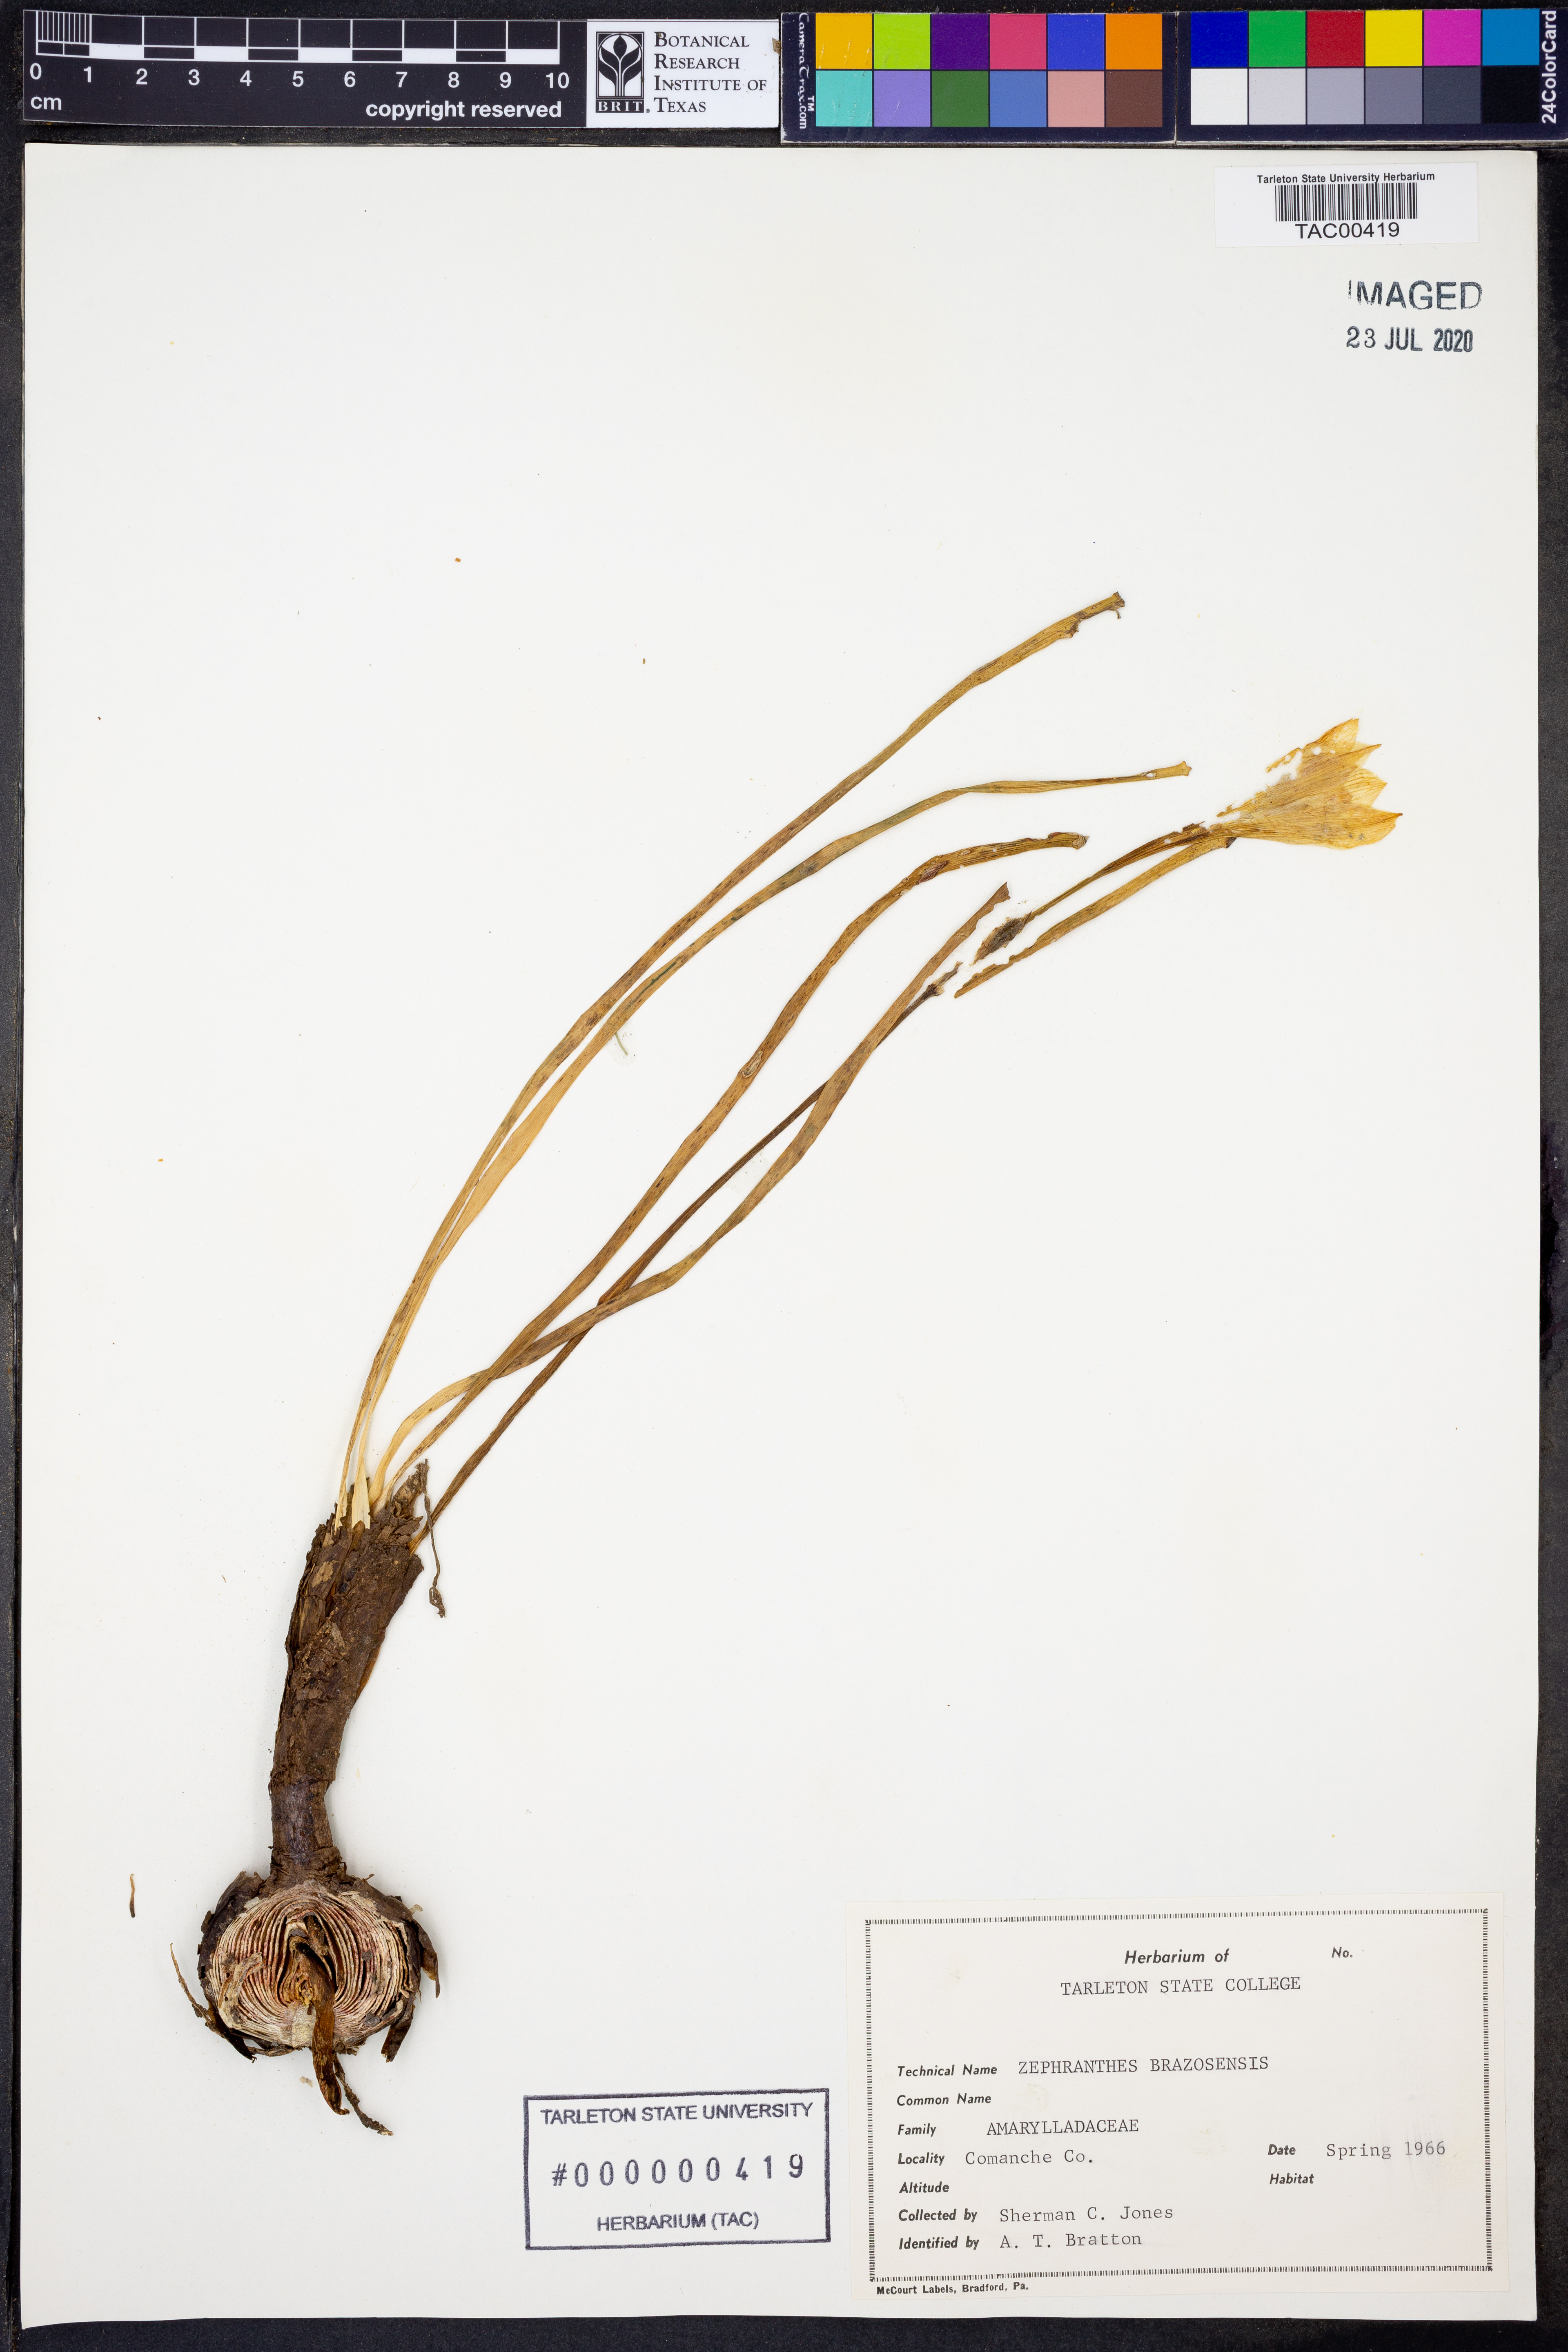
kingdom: Plantae
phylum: Tracheophyta
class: Liliopsida
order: Asparagales
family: Amaryllidaceae
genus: Zephyranthes
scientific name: Zephyranthes chlorosolen
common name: Evening rain-lily
